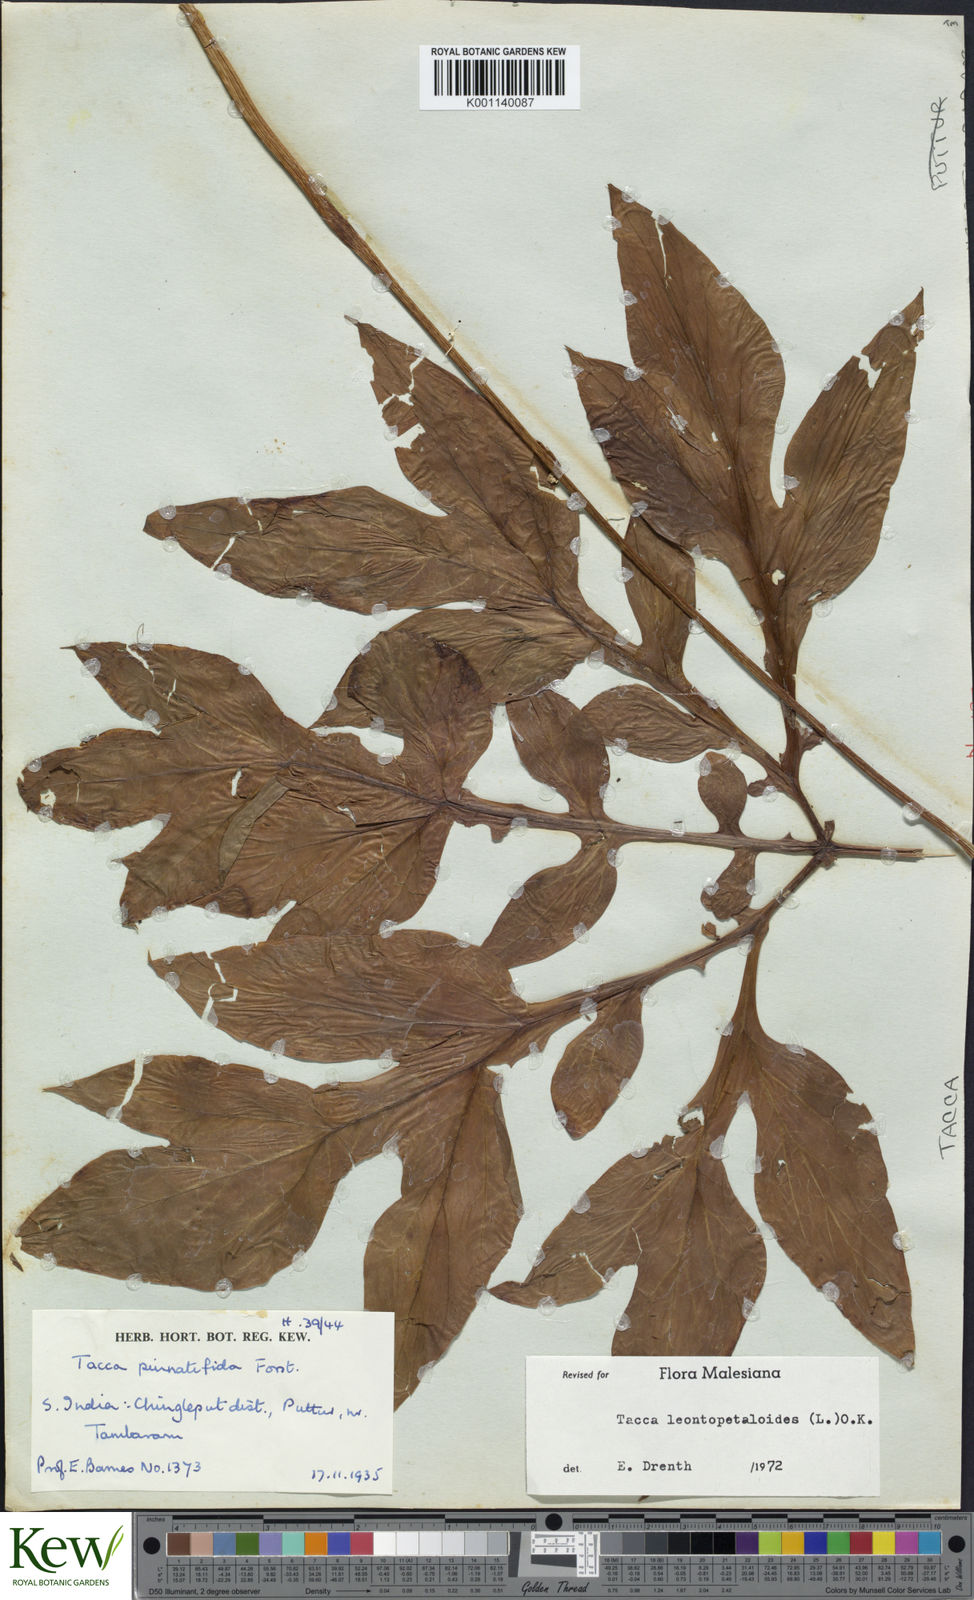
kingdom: Plantae
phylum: Tracheophyta
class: Liliopsida
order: Dioscoreales
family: Dioscoreaceae
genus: Tacca
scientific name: Tacca leontopetaloides
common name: Arrowroot
